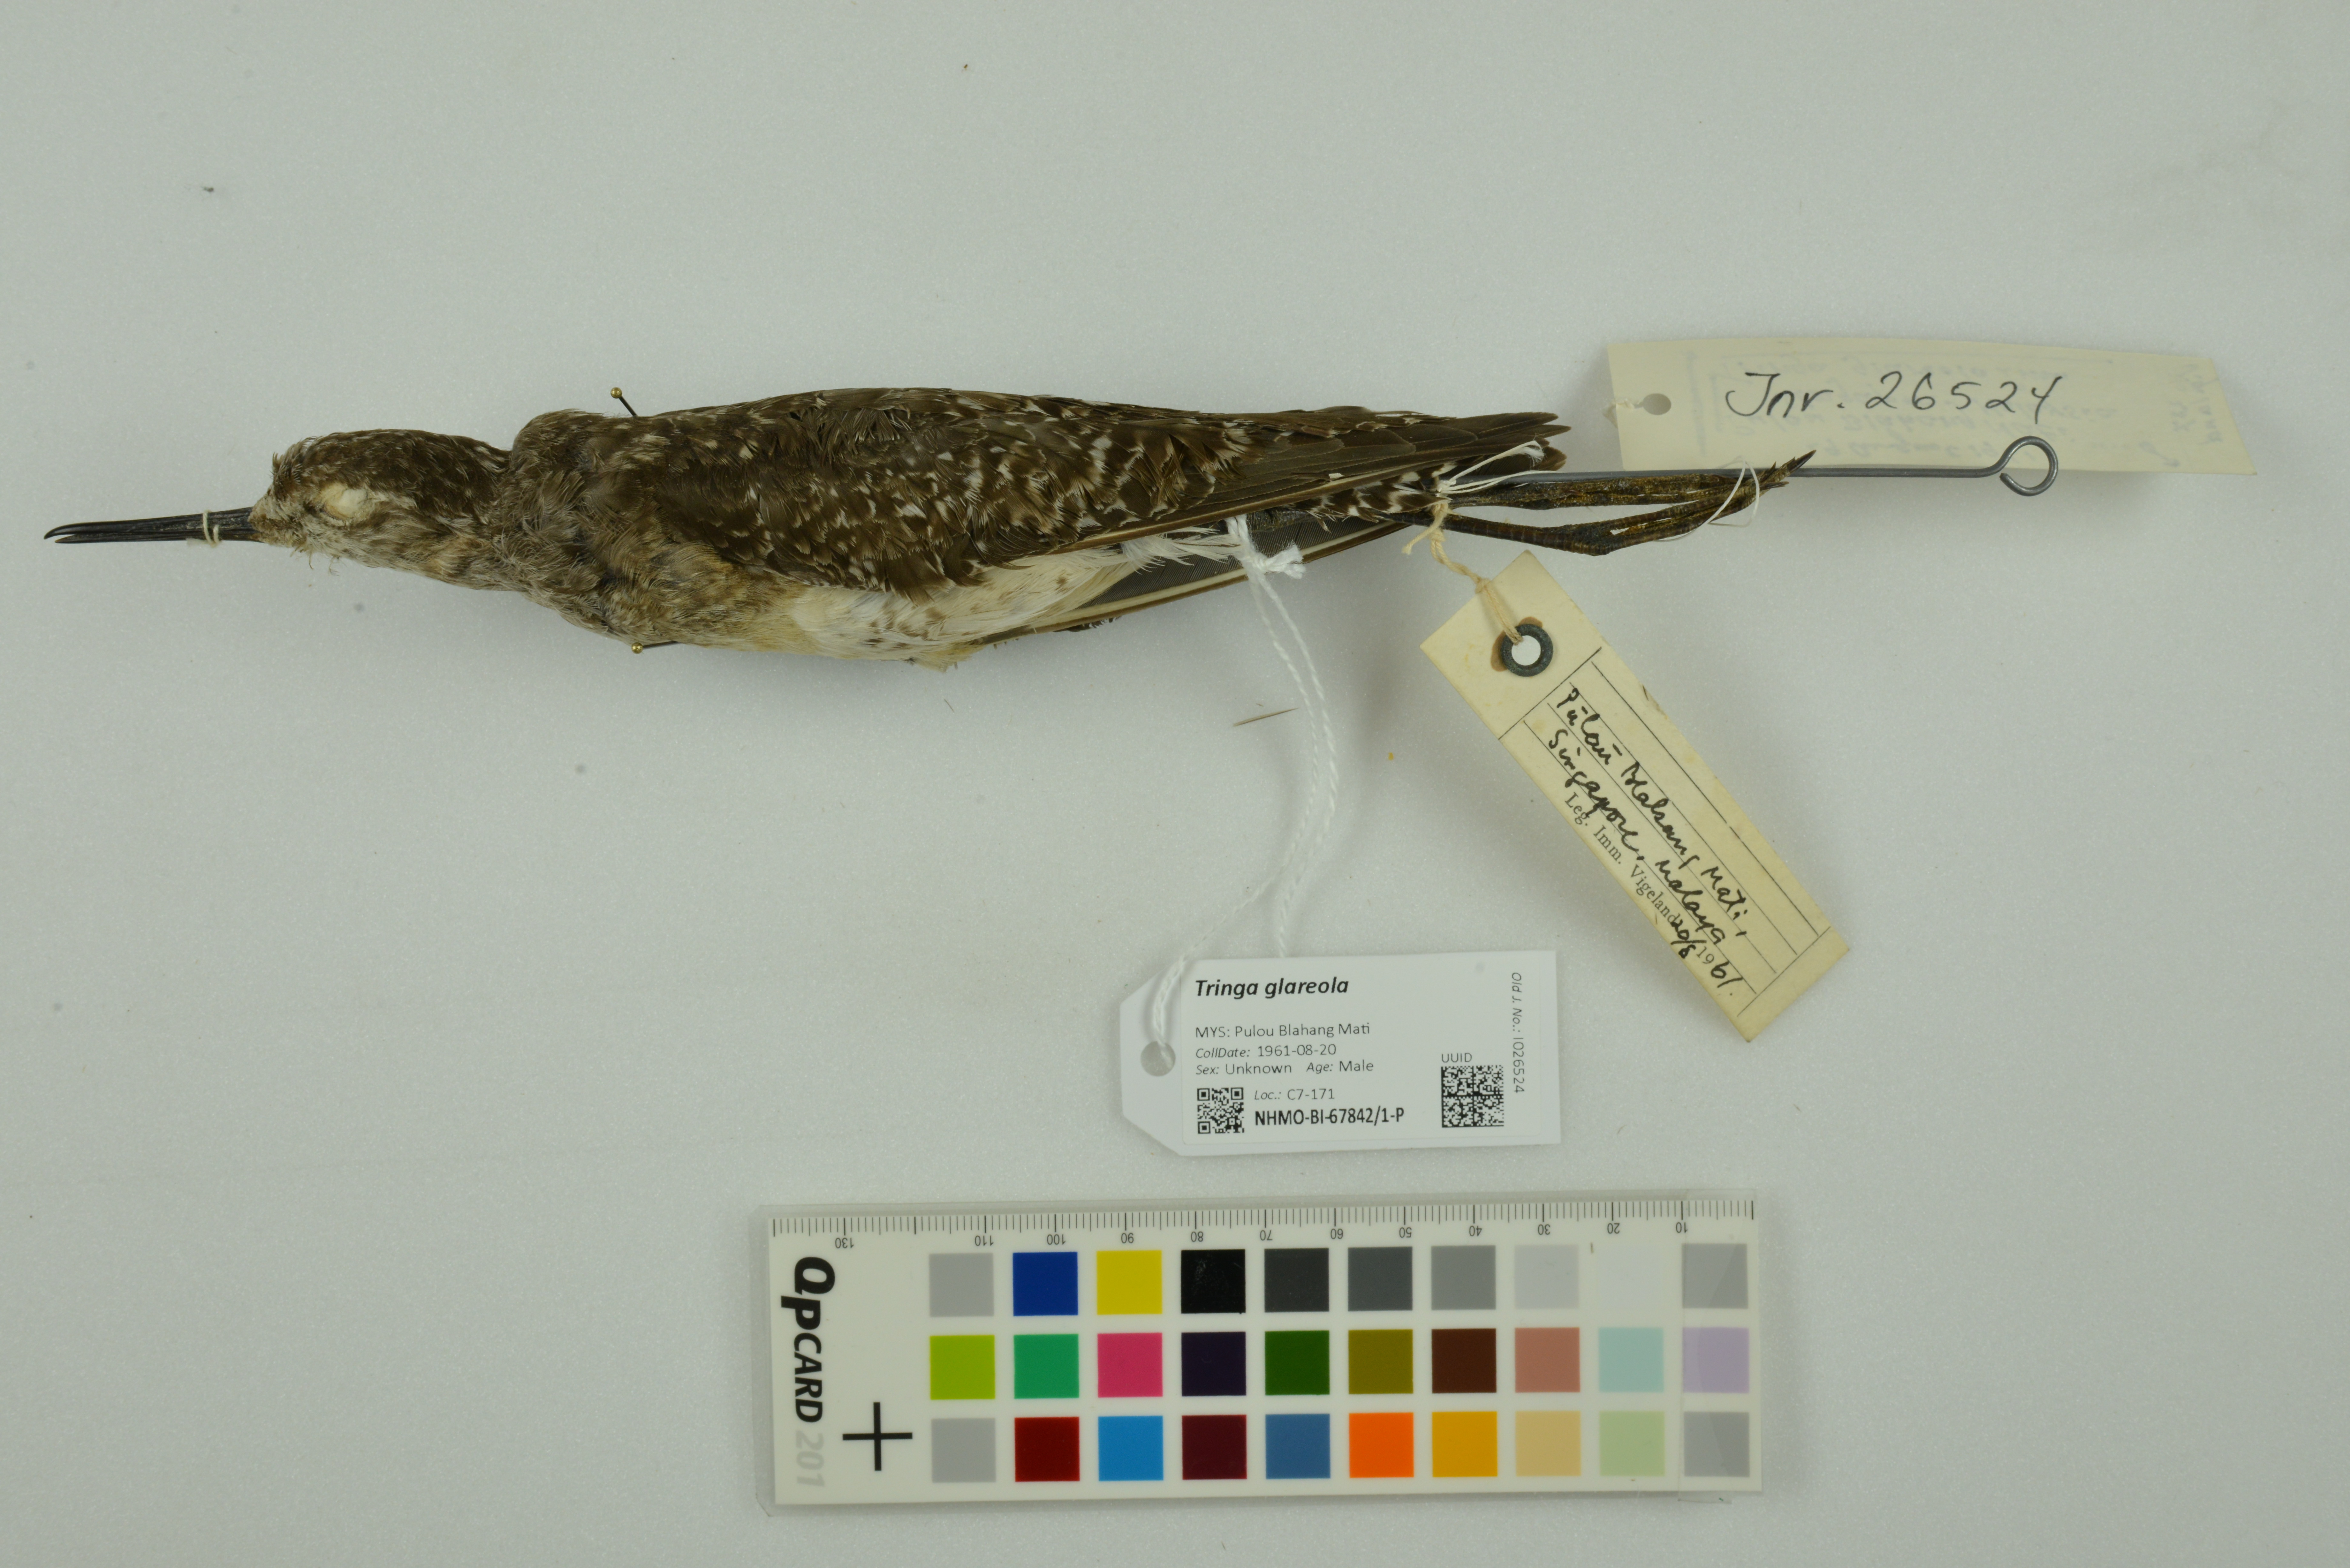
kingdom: Animalia
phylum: Chordata
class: Aves
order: Charadriiformes
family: Scolopacidae
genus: Tringa
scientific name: Tringa glareola
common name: Wood sandpiper
